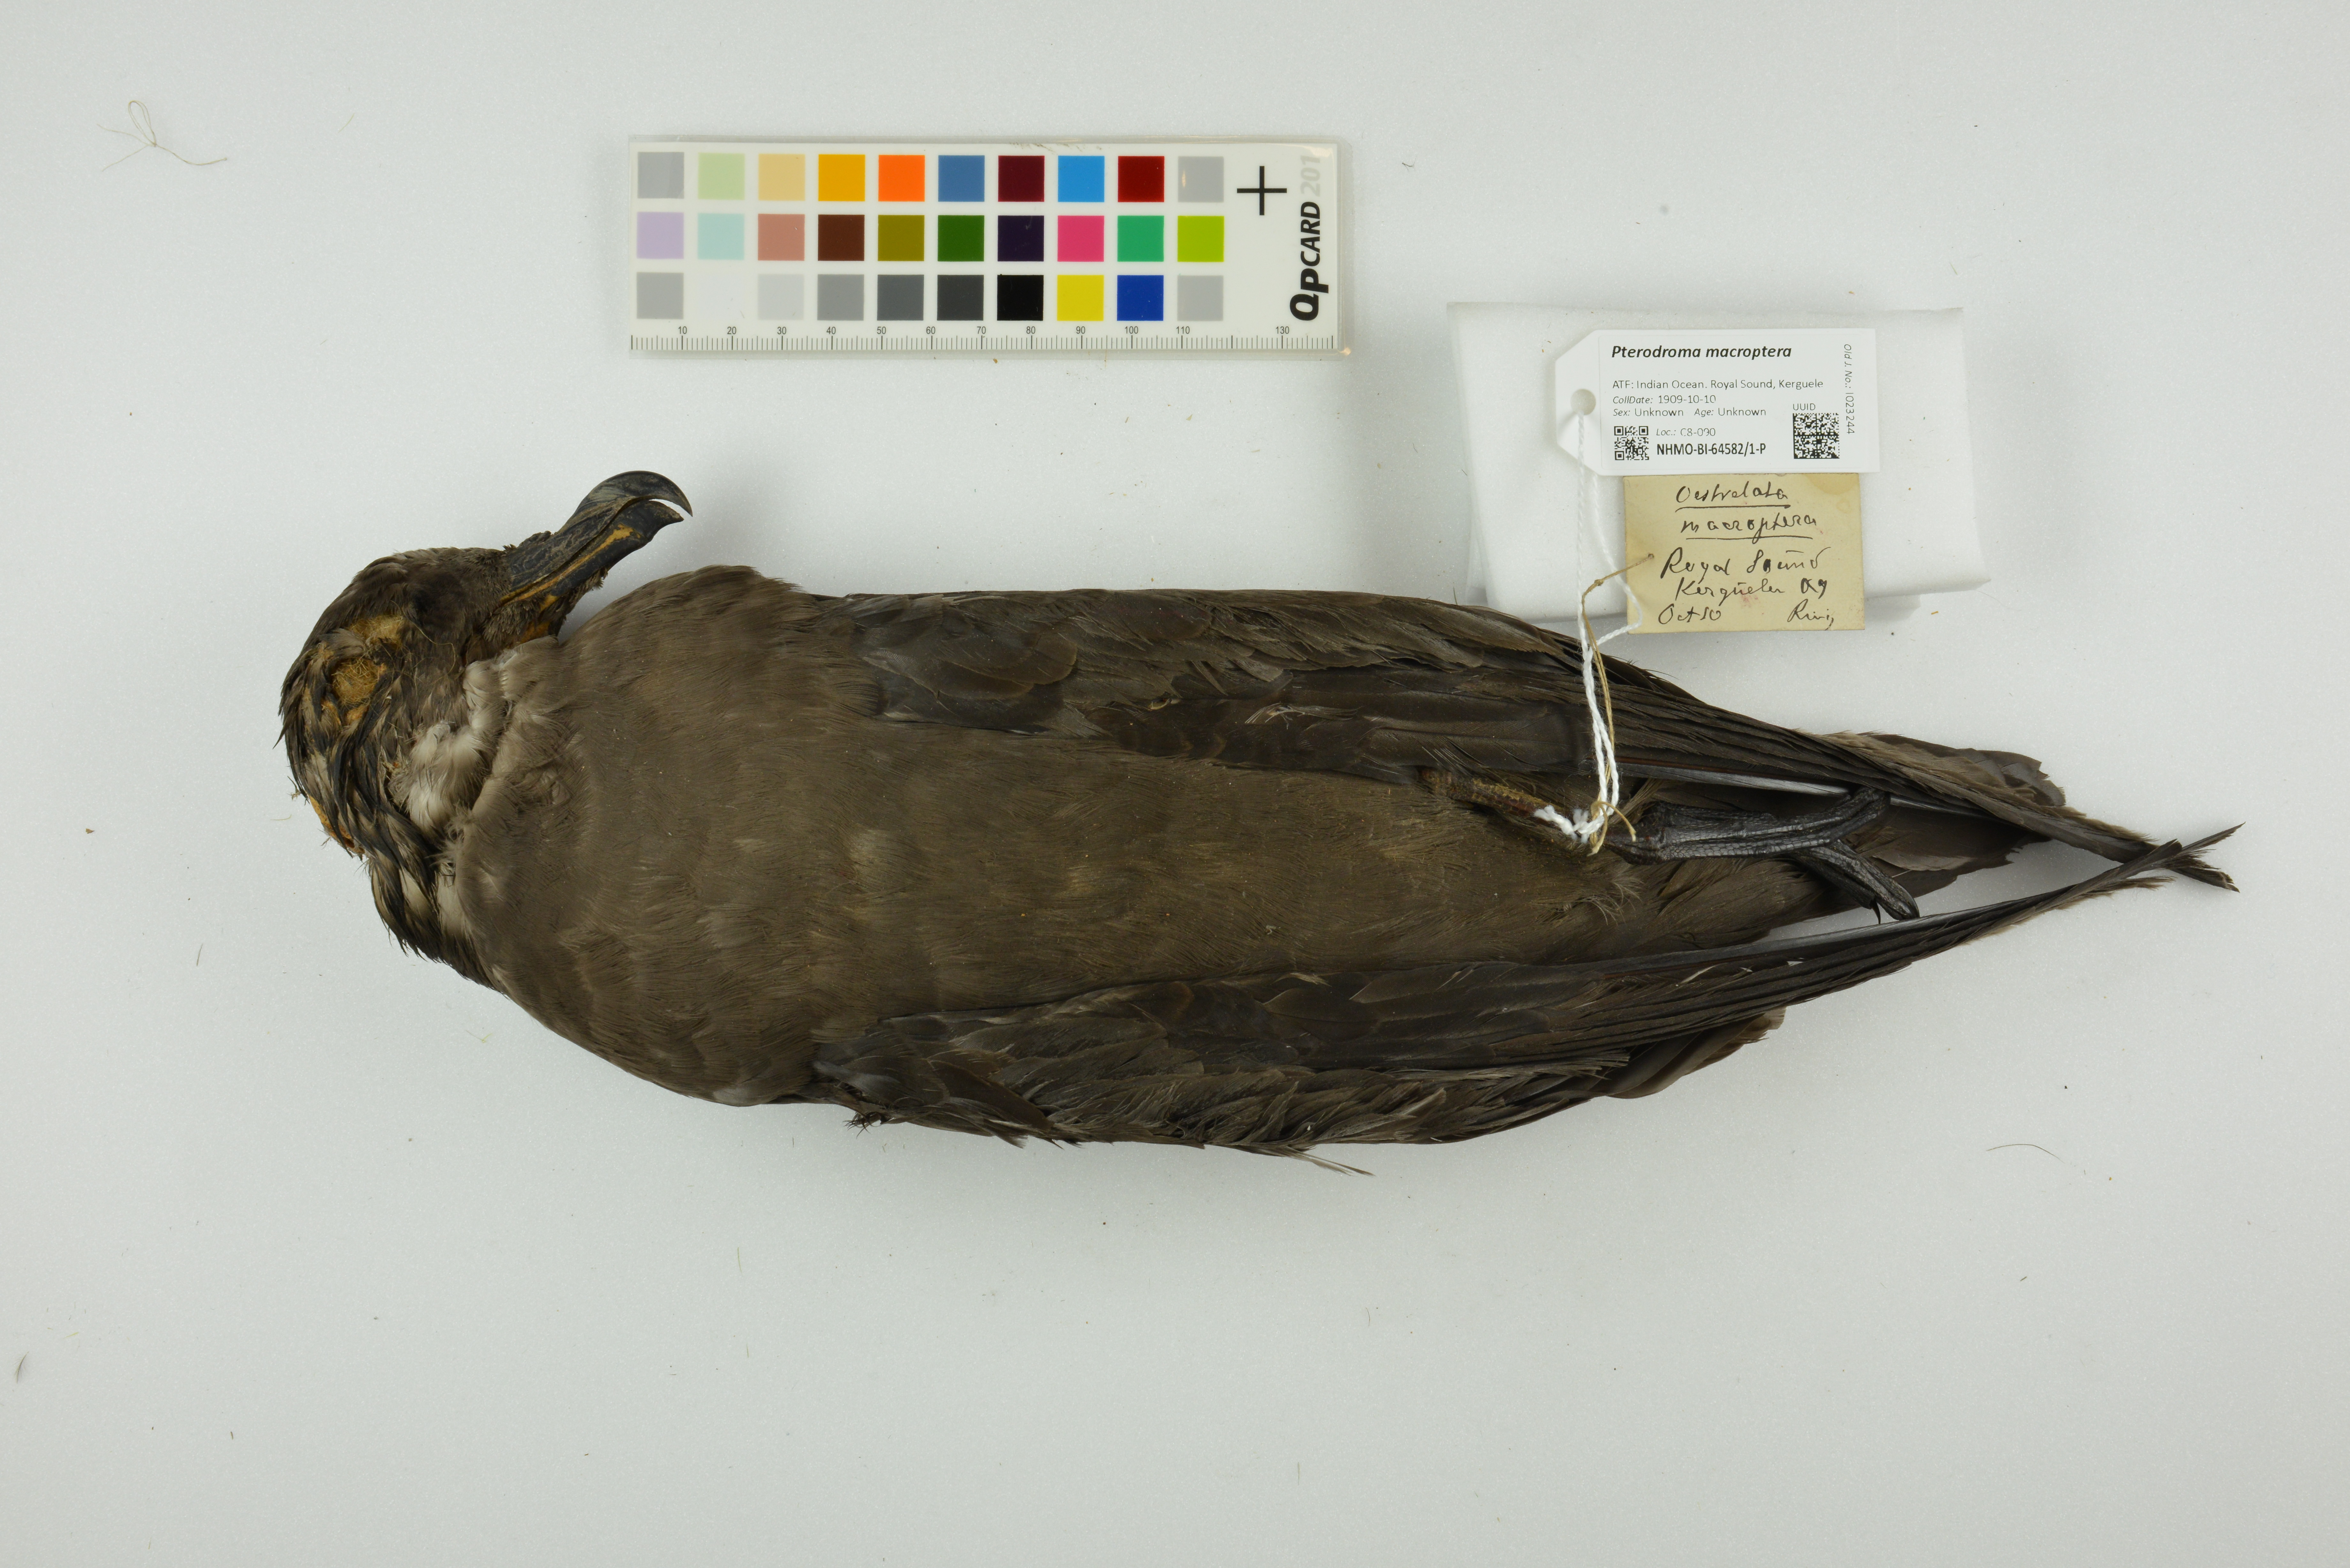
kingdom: Animalia
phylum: Chordata
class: Aves
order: Procellariiformes
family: Procellariidae
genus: Pterodroma
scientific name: Pterodroma macroptera
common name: Great-winged petrel
